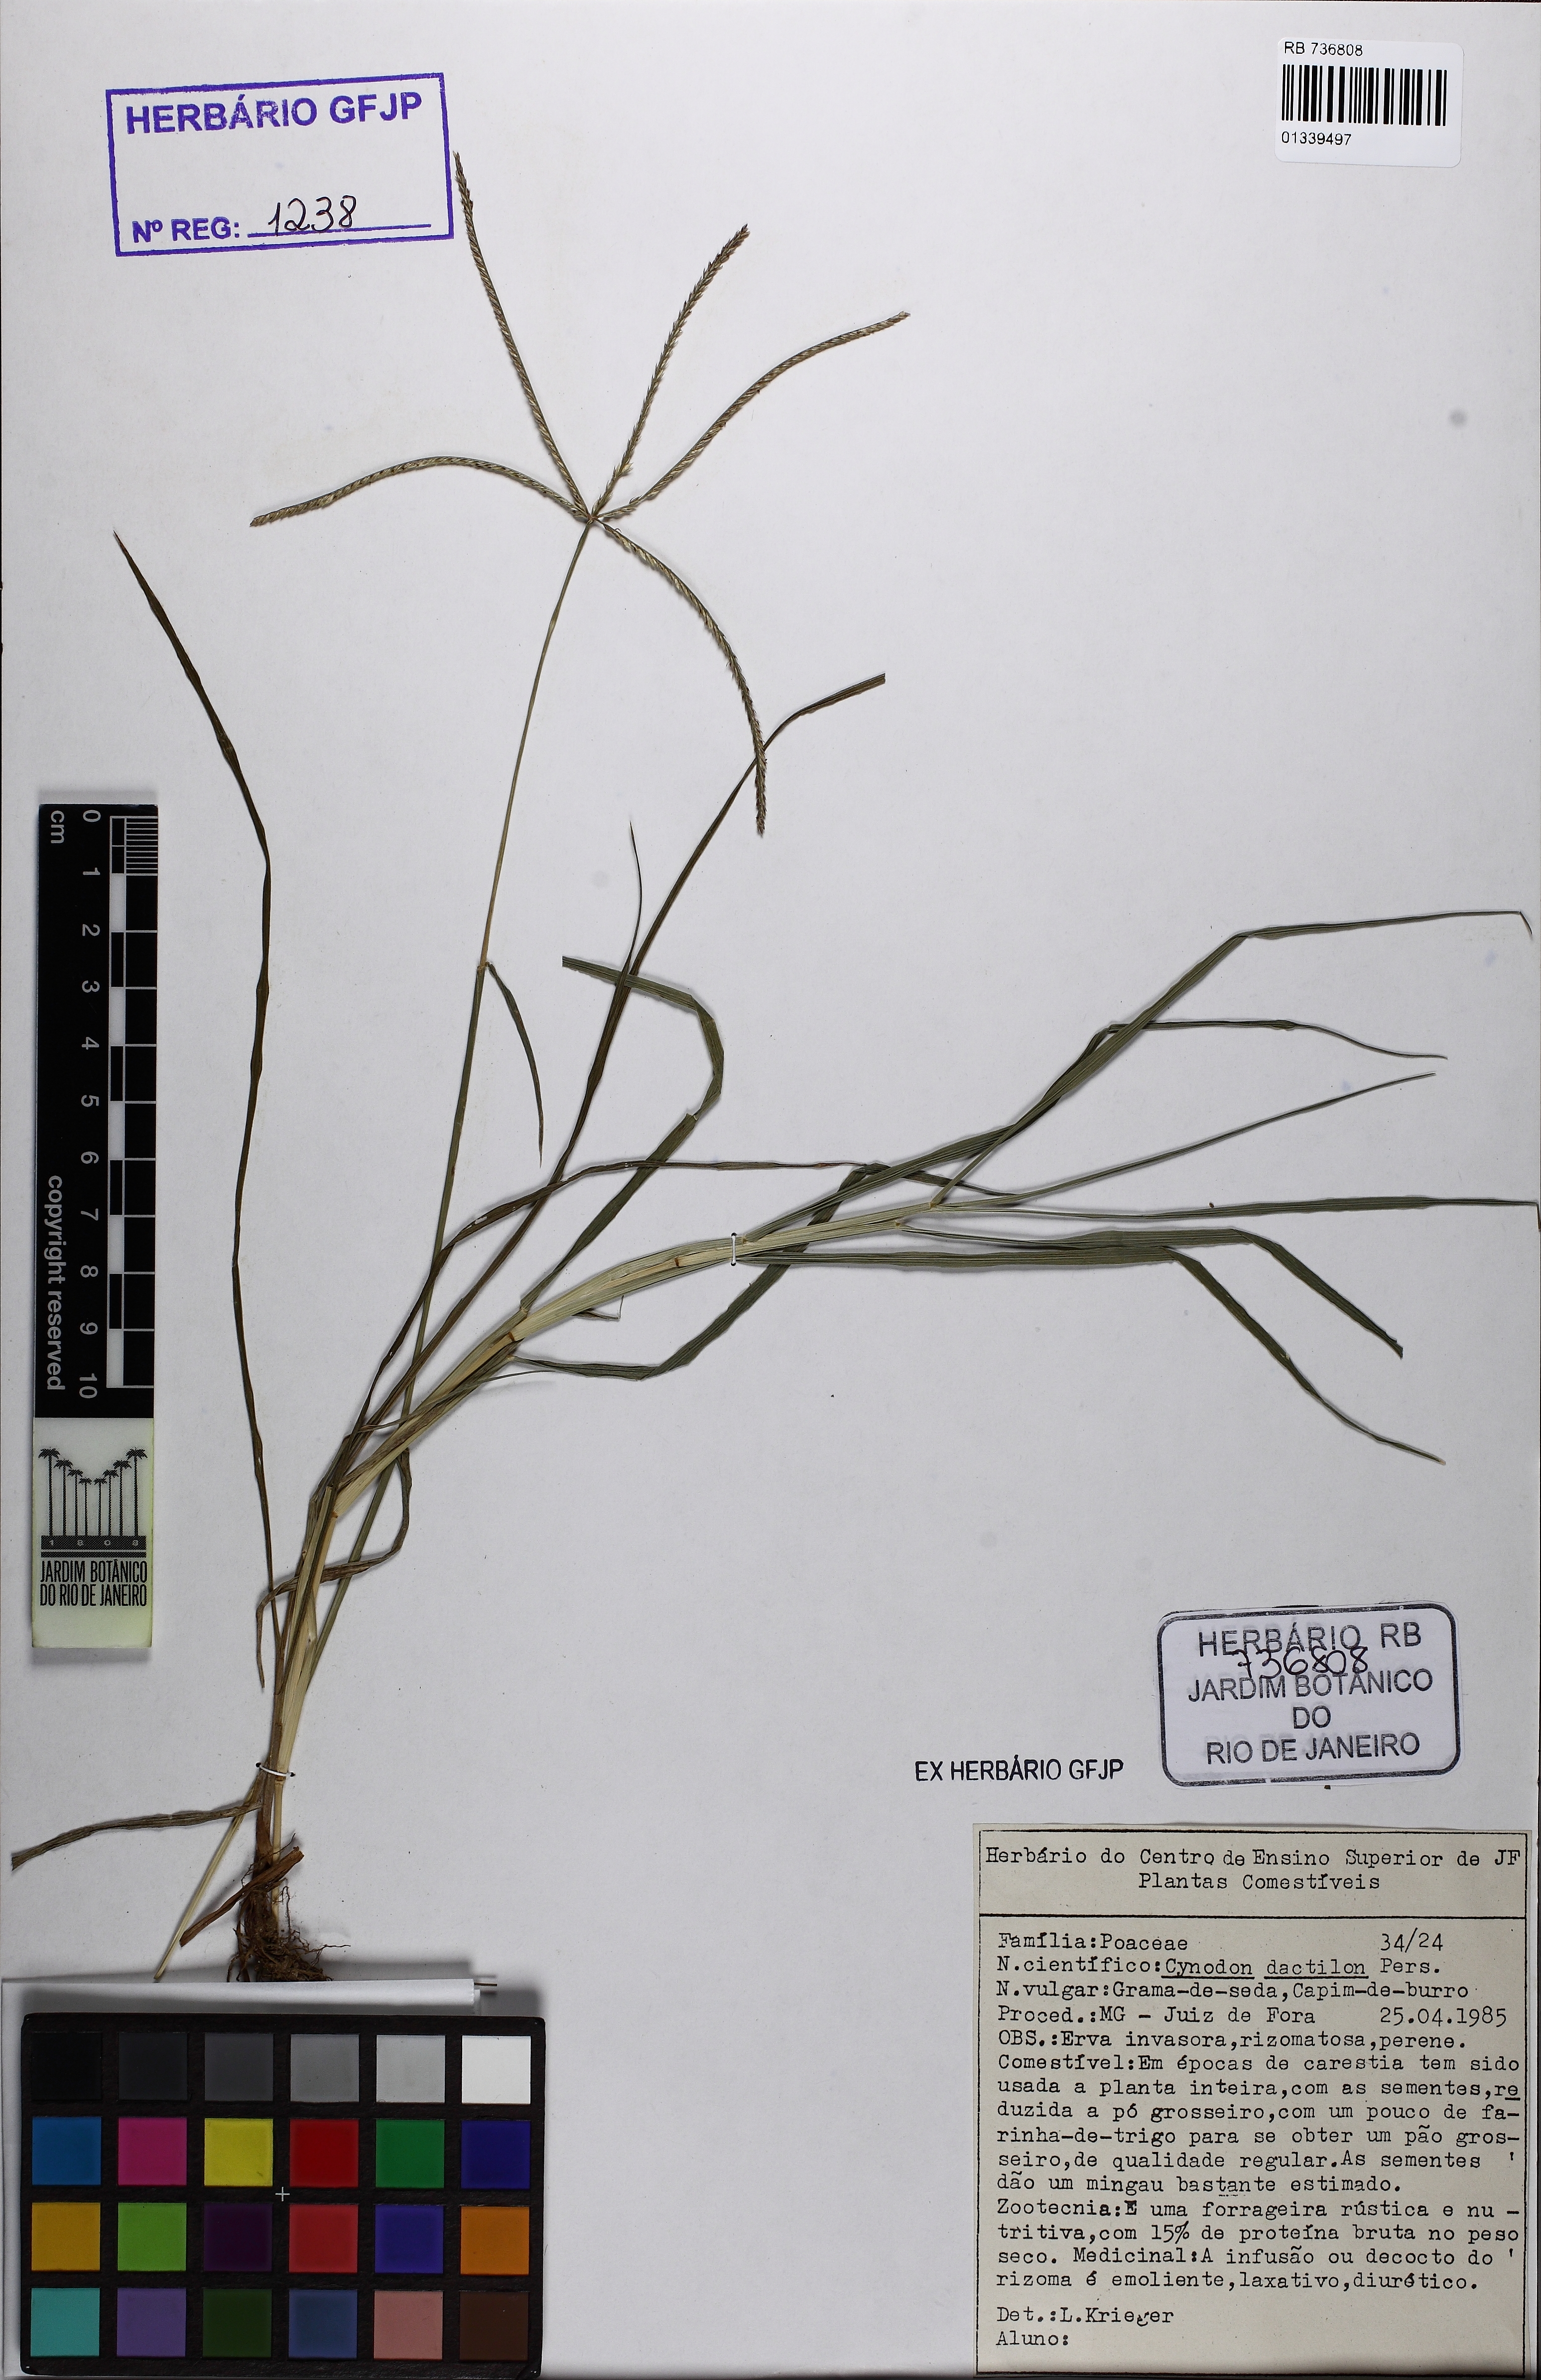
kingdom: Plantae
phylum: Tracheophyta
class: Liliopsida
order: Poales
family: Poaceae
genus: Cynodon
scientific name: Cynodon dactylon
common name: Bermuda grass
